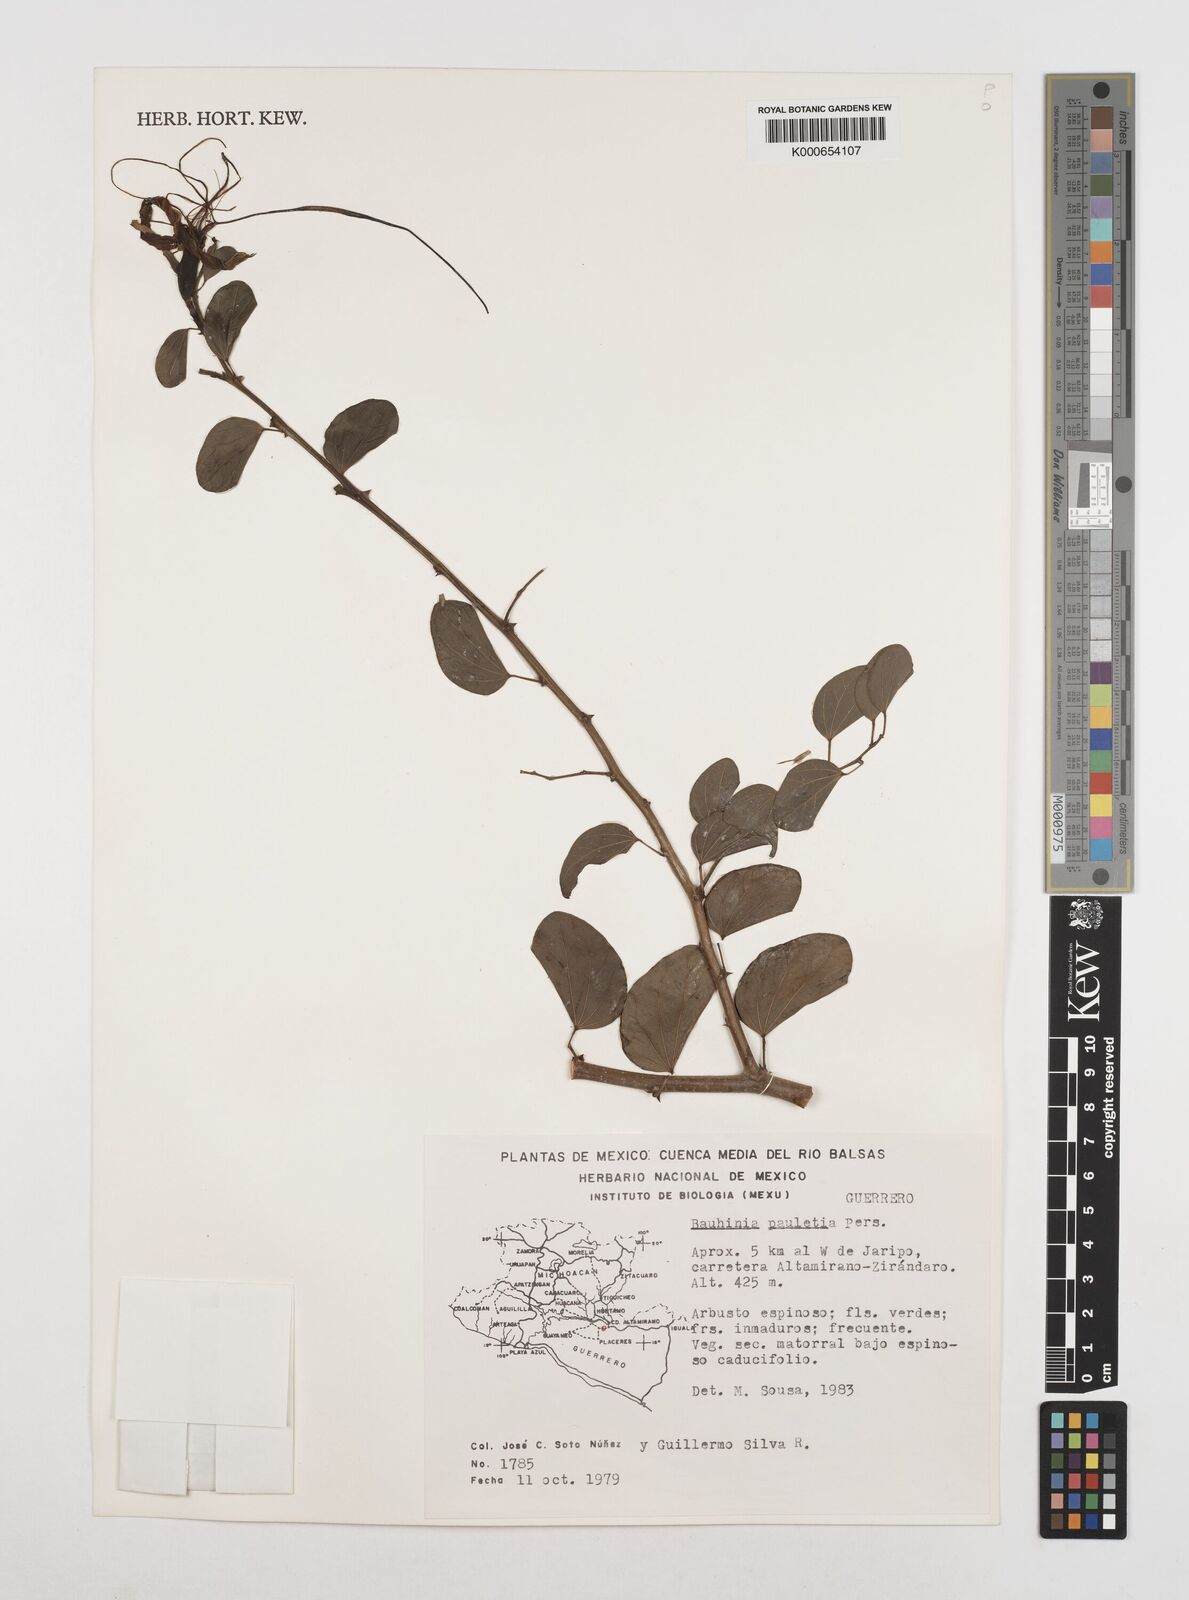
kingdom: Plantae
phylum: Tracheophyta
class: Magnoliopsida
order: Fabales
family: Fabaceae
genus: Bauhinia
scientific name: Bauhinia pauletia
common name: Railway-fence bauhinia
